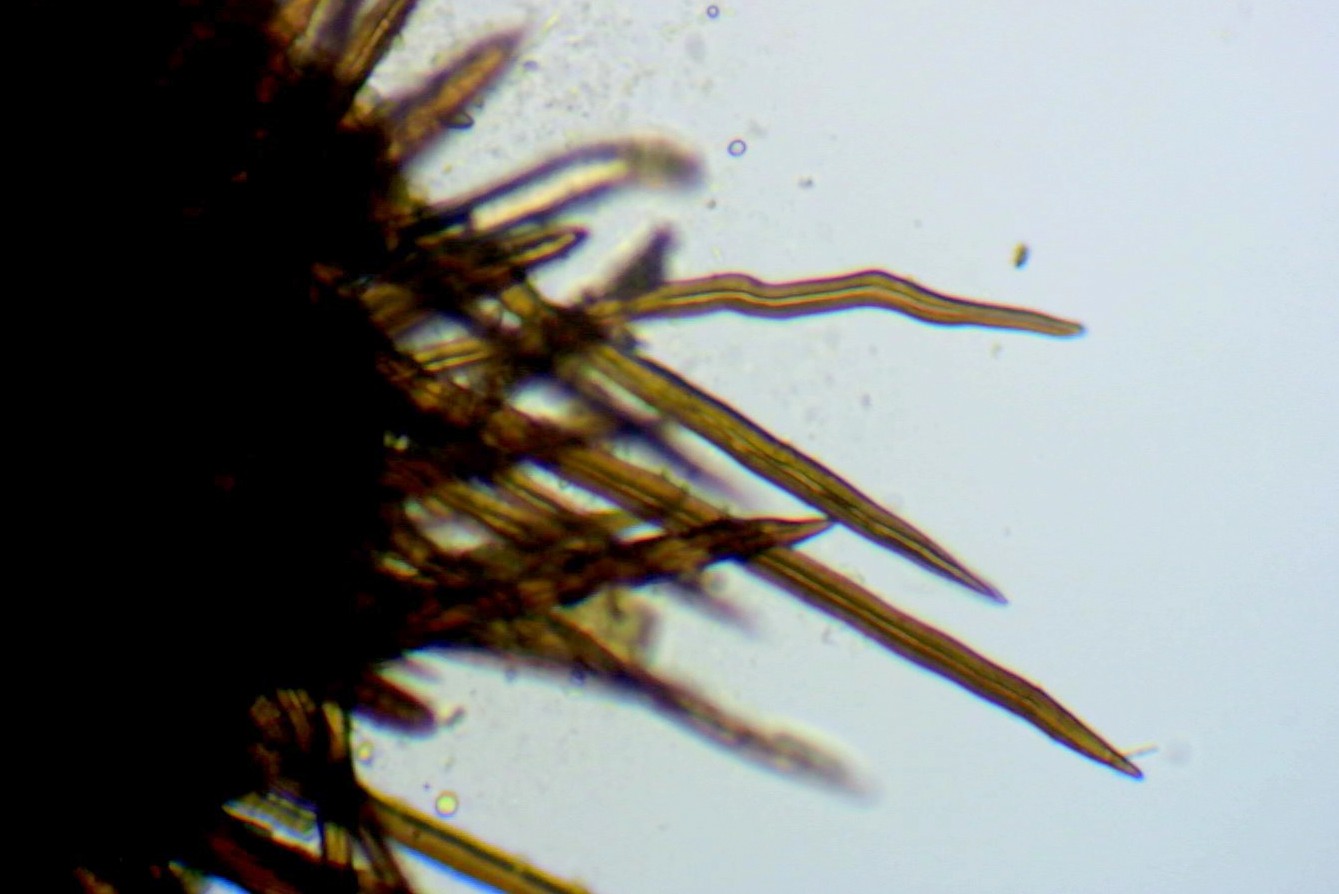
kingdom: Fungi
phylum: Ascomycota
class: Sordariomycetes
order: Sordariales
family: Helminthosphaeriaceae
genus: Echinosphaeria
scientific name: Echinosphaeria canescens
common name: brun børstekerne
